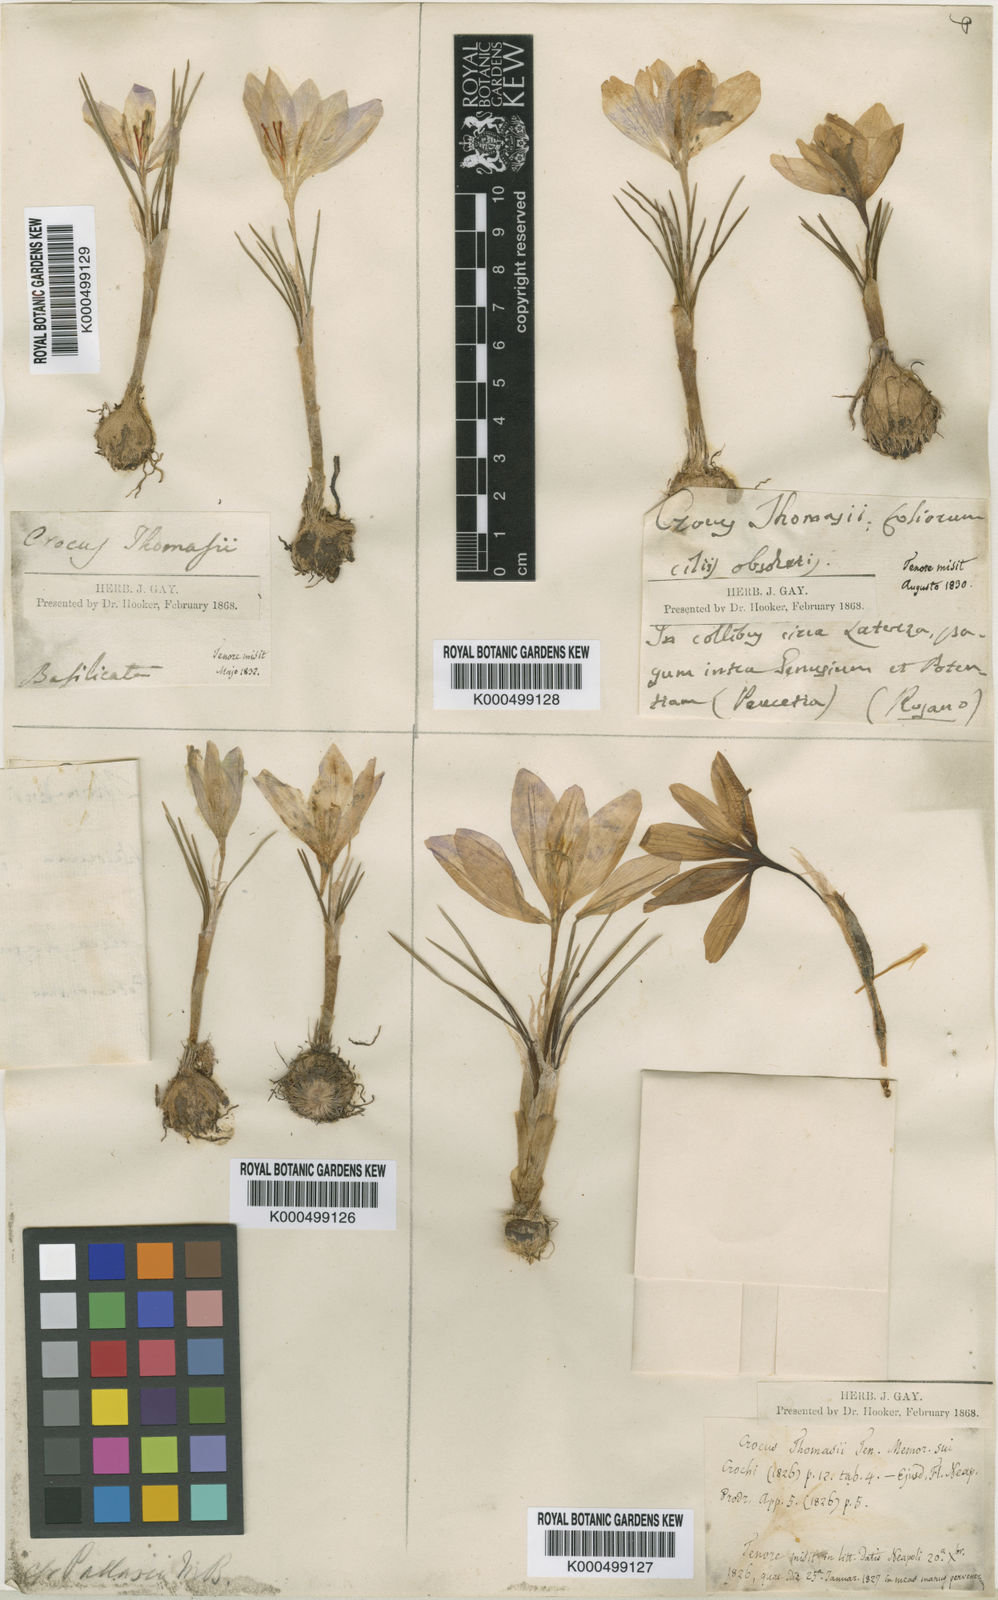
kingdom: Plantae
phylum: Tracheophyta
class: Liliopsida
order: Asparagales
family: Iridaceae
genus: Crocus
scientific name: Crocus thomasii
